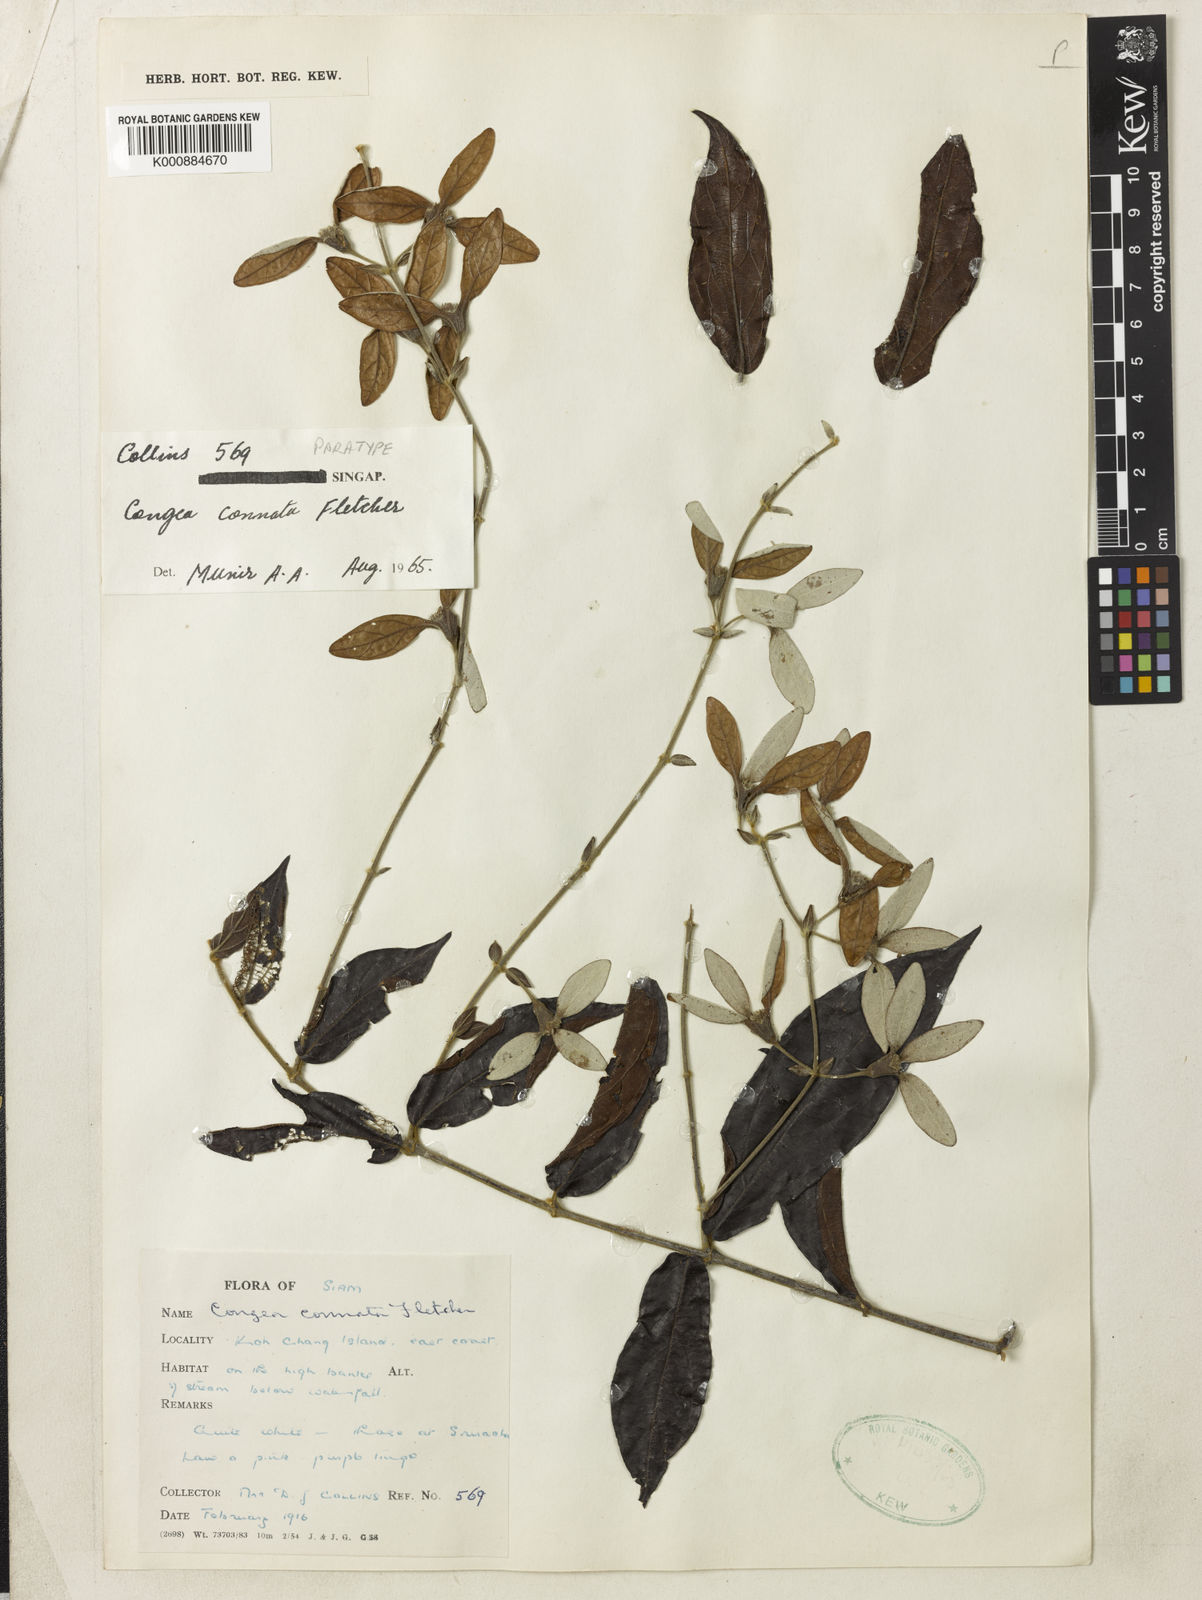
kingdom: Plantae
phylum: Tracheophyta
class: Magnoliopsida
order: Lamiales
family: Lamiaceae
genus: Congea
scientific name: Congea connata
